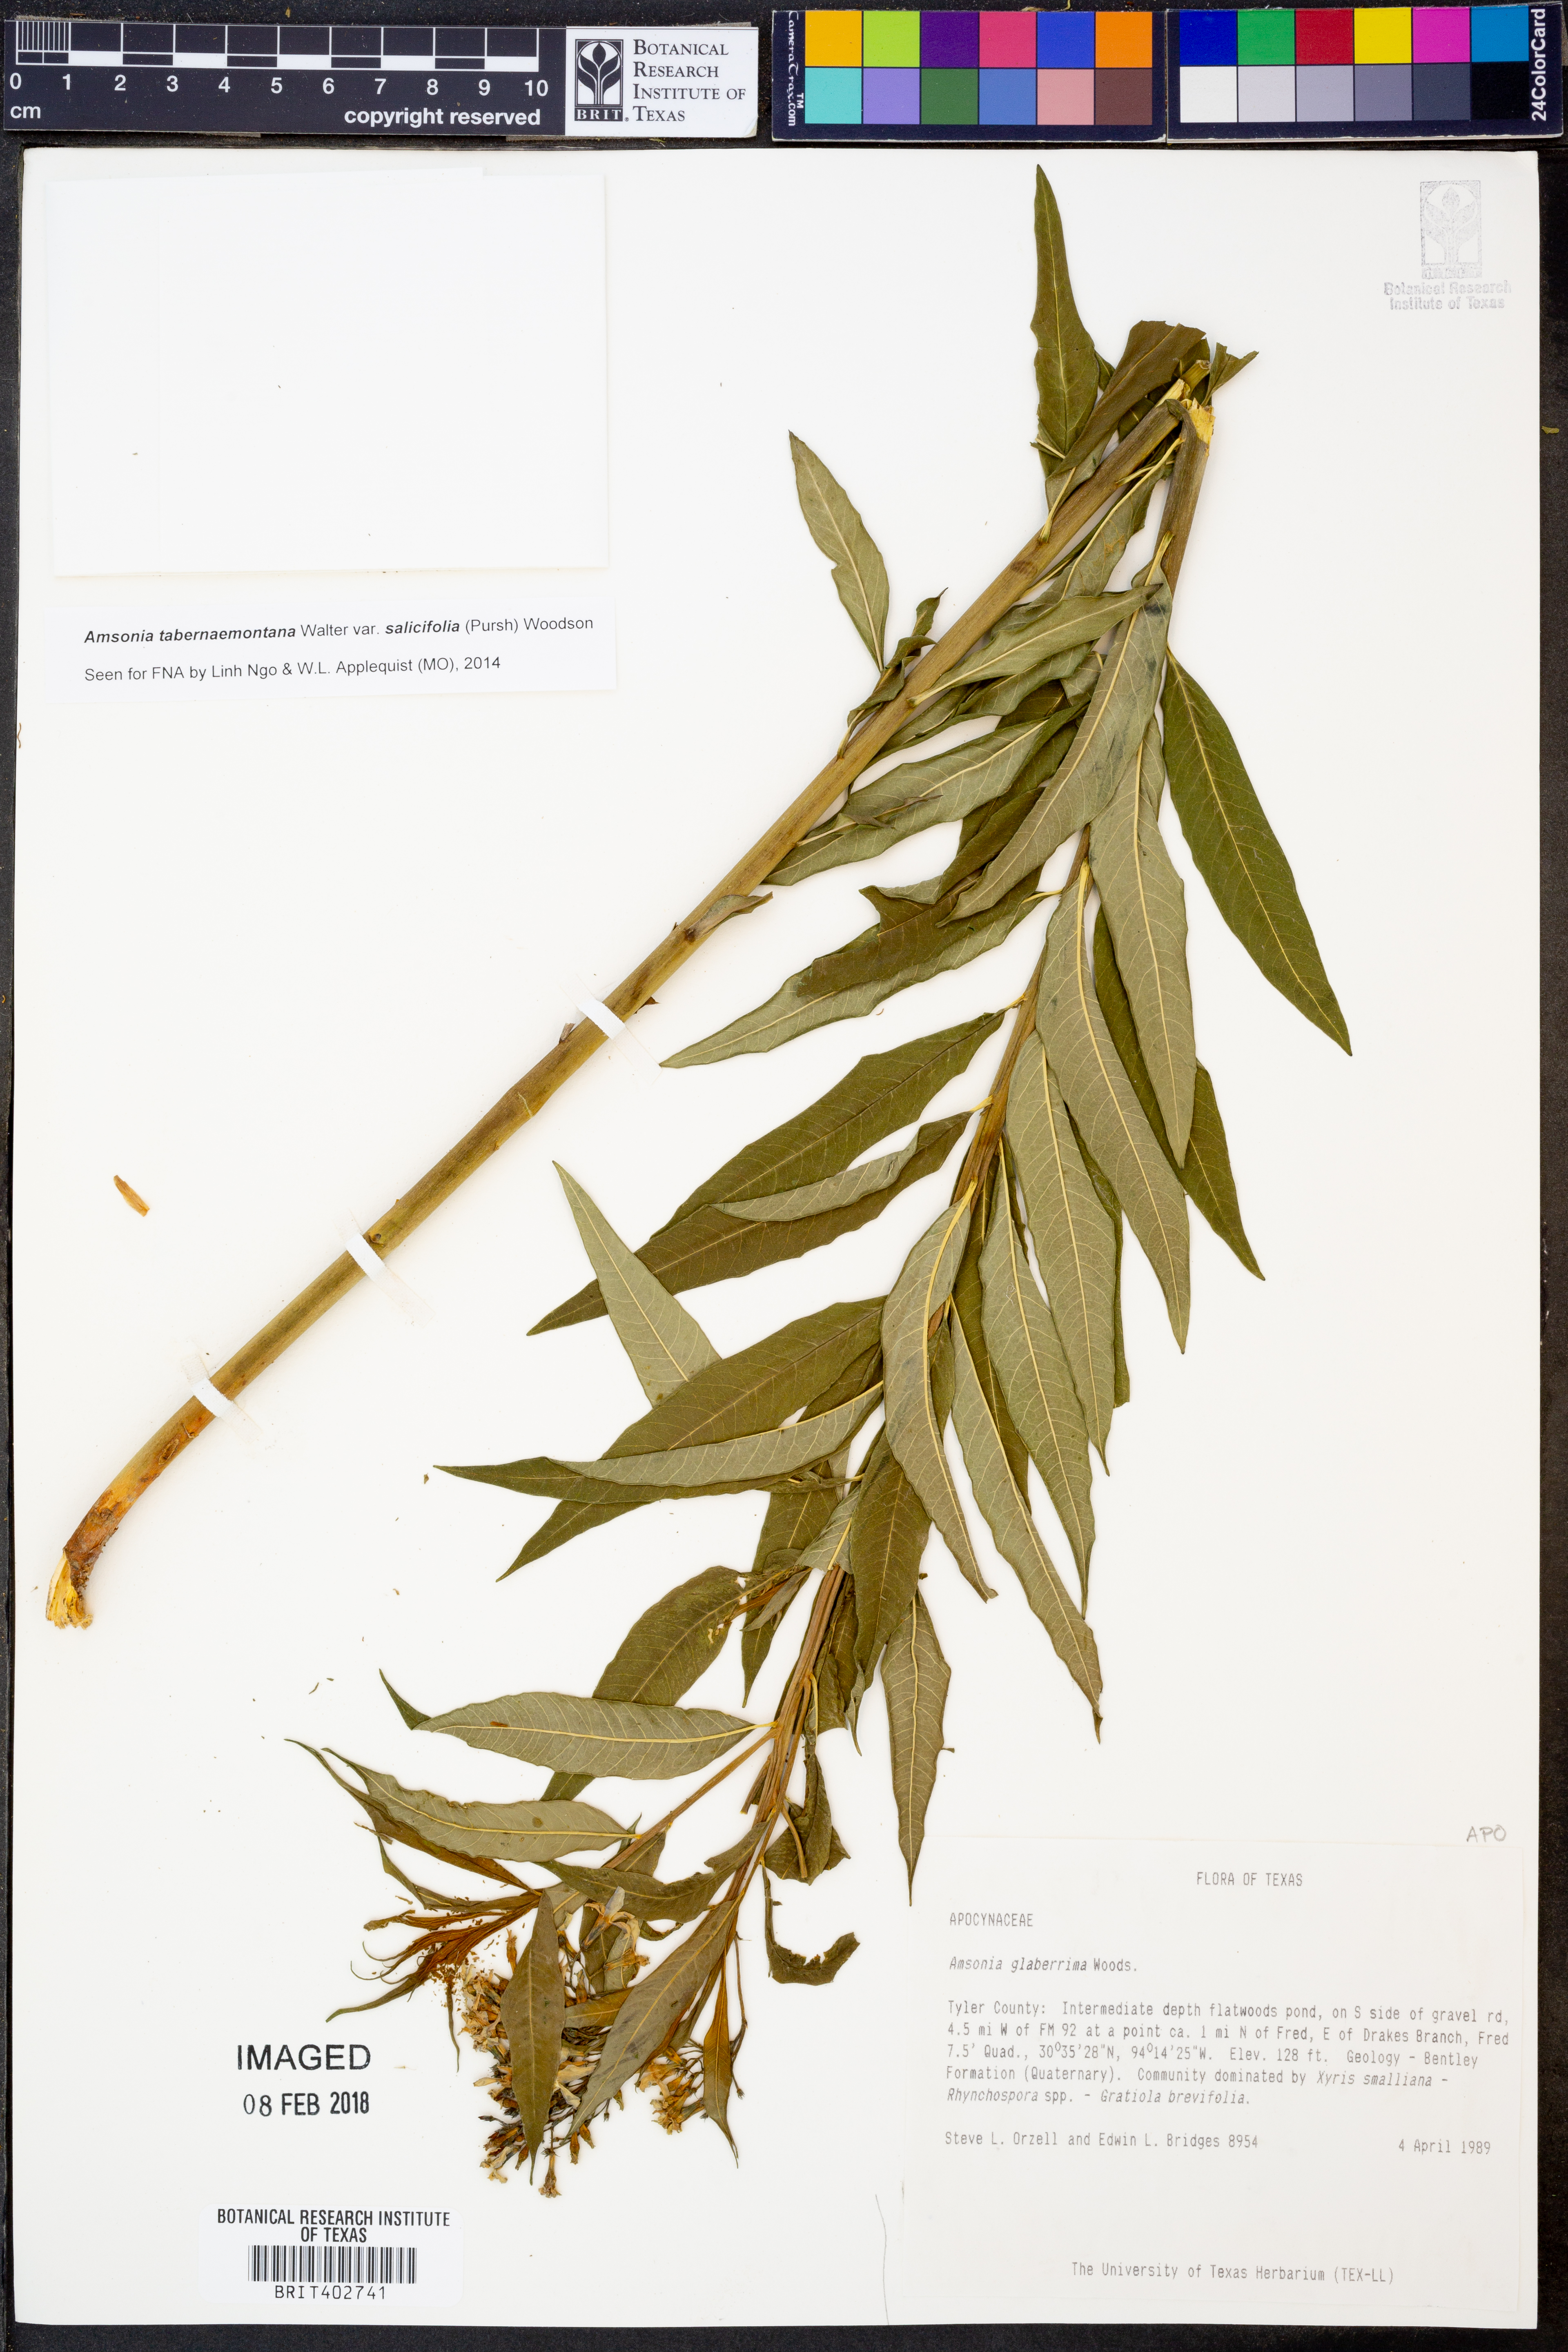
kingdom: Plantae
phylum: Tracheophyta
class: Magnoliopsida
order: Gentianales
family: Apocynaceae
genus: Amsonia
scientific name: Amsonia tabernaemontana
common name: Texas-star
